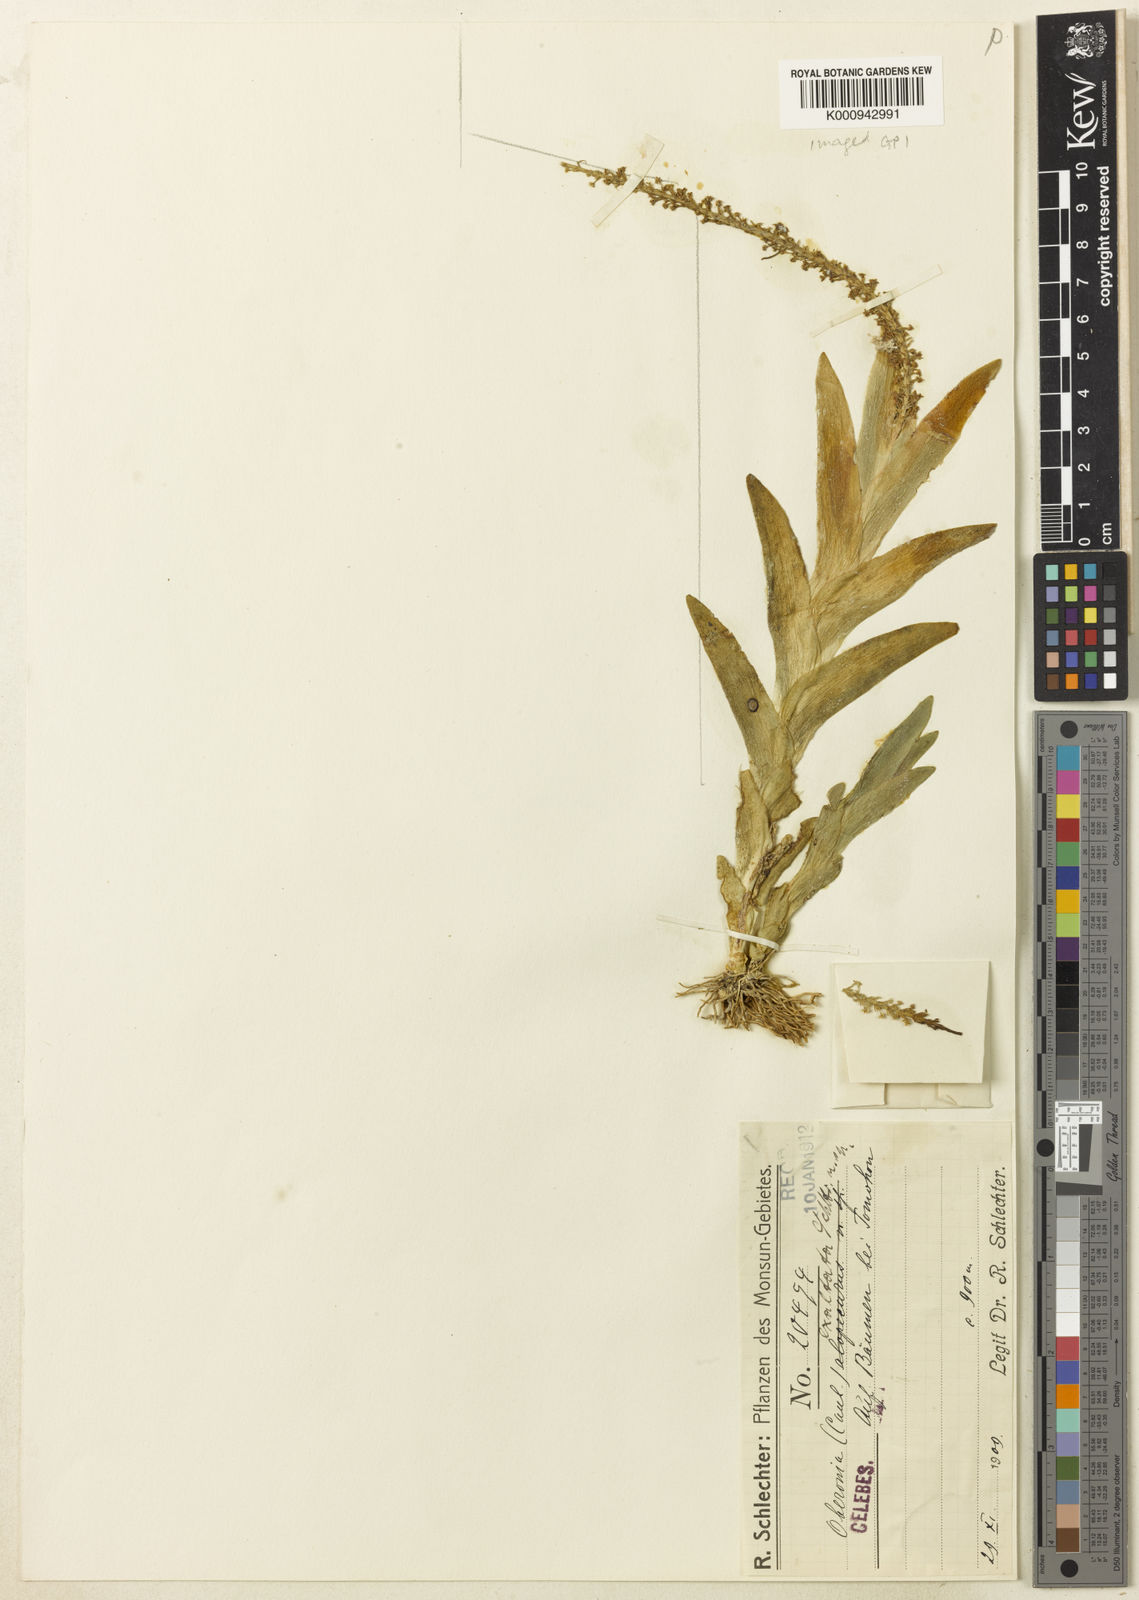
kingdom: Plantae
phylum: Tracheophyta
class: Liliopsida
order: Asparagales
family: Orchidaceae
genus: Oberonia
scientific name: Oberonia exaltata
